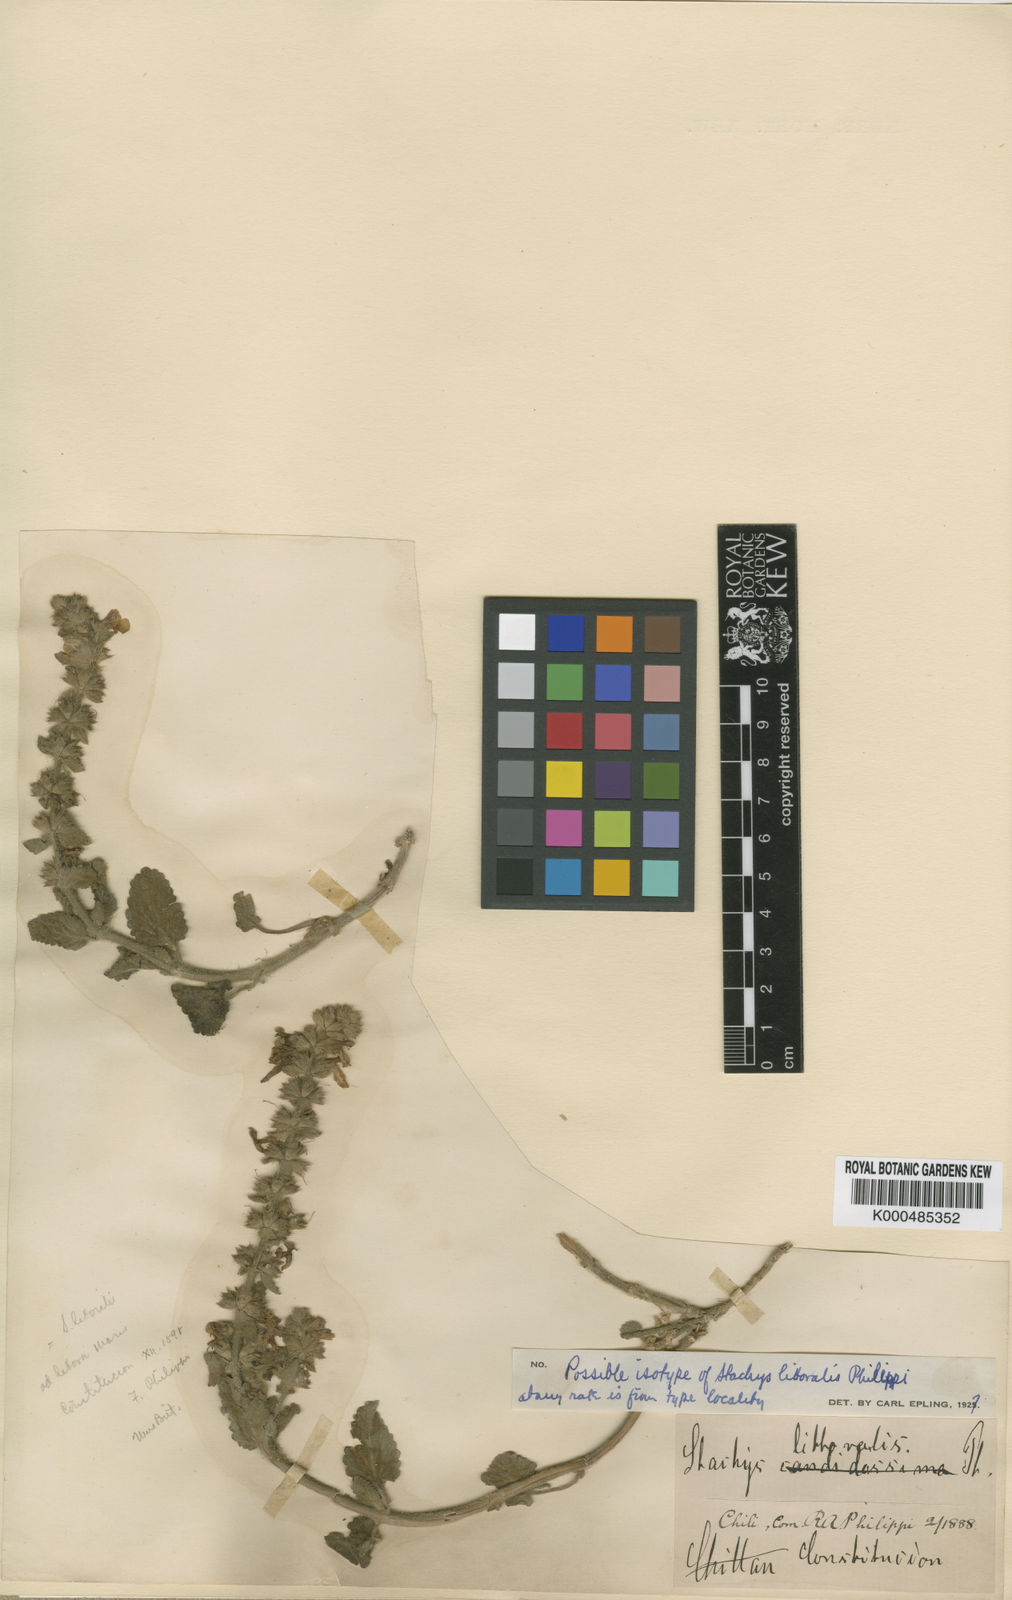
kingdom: Plantae
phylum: Tracheophyta
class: Magnoliopsida
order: Lamiales
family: Lamiaceae
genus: Stachys
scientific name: Stachys ochroleuca
